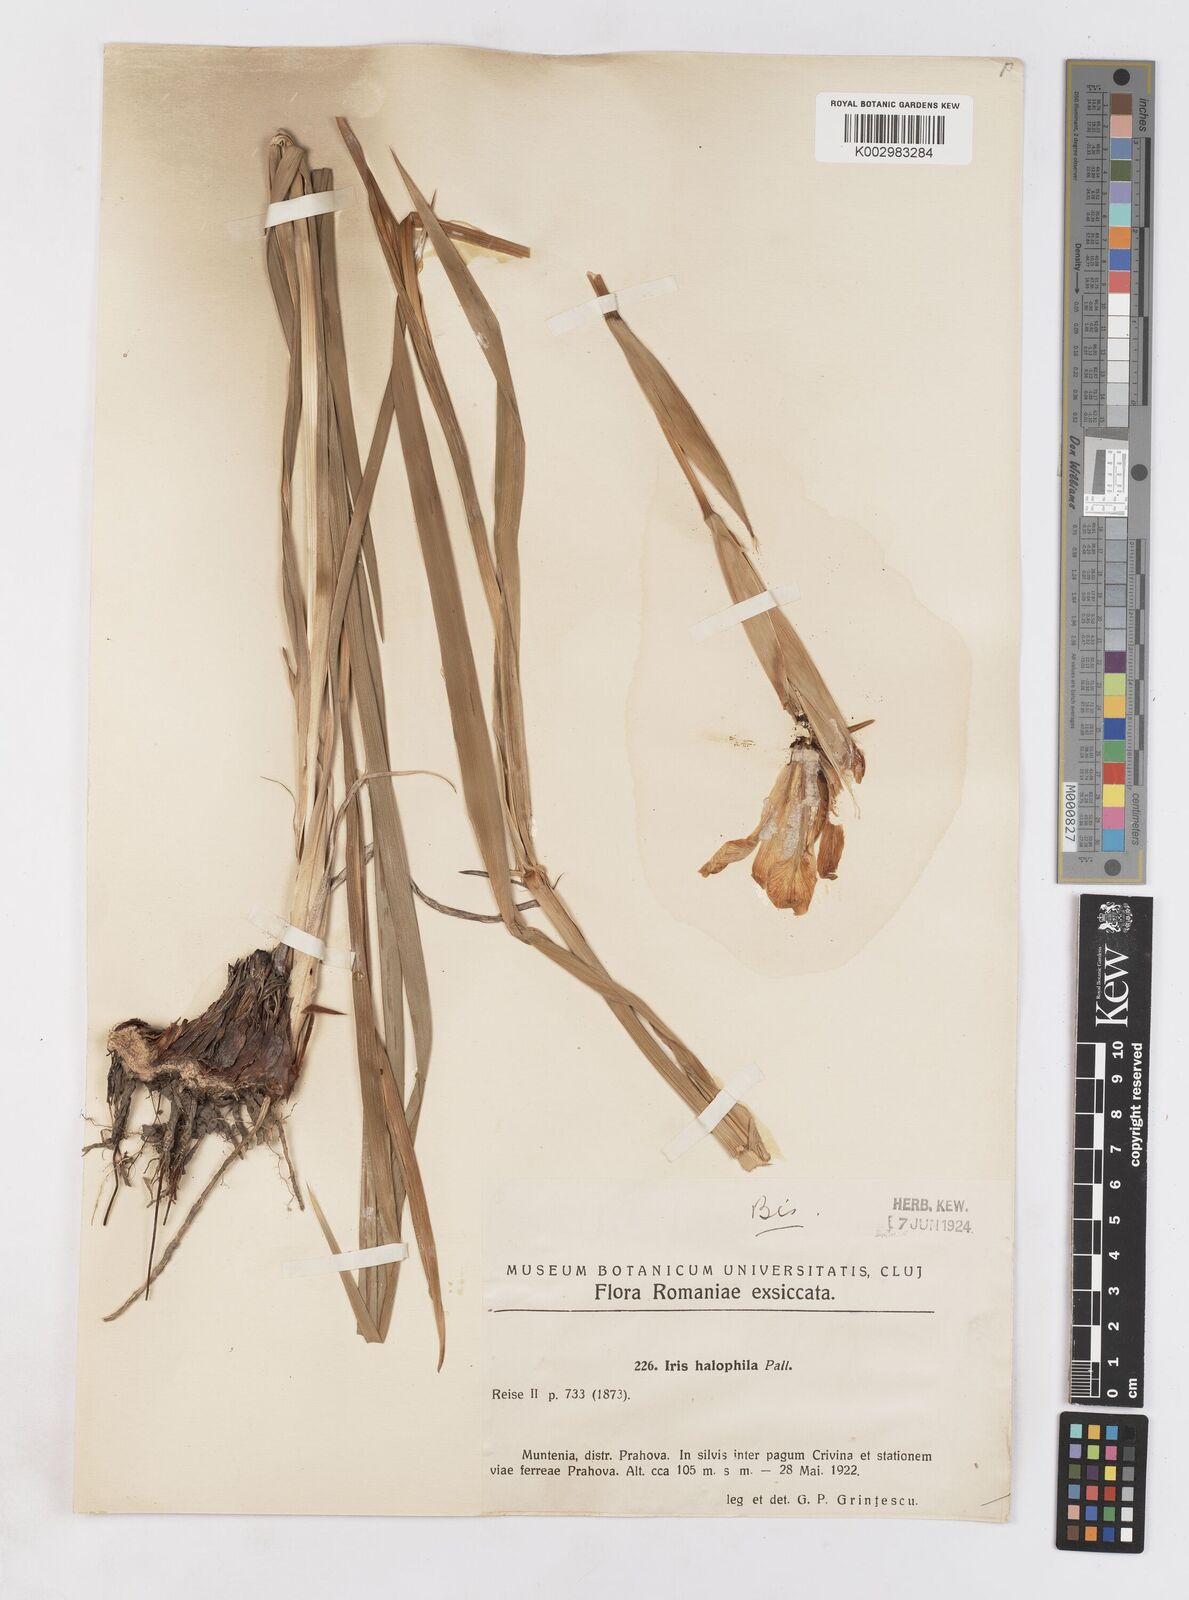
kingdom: Plantae
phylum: Tracheophyta
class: Liliopsida
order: Asparagales
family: Iridaceae
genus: Iris
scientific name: Iris halophila
